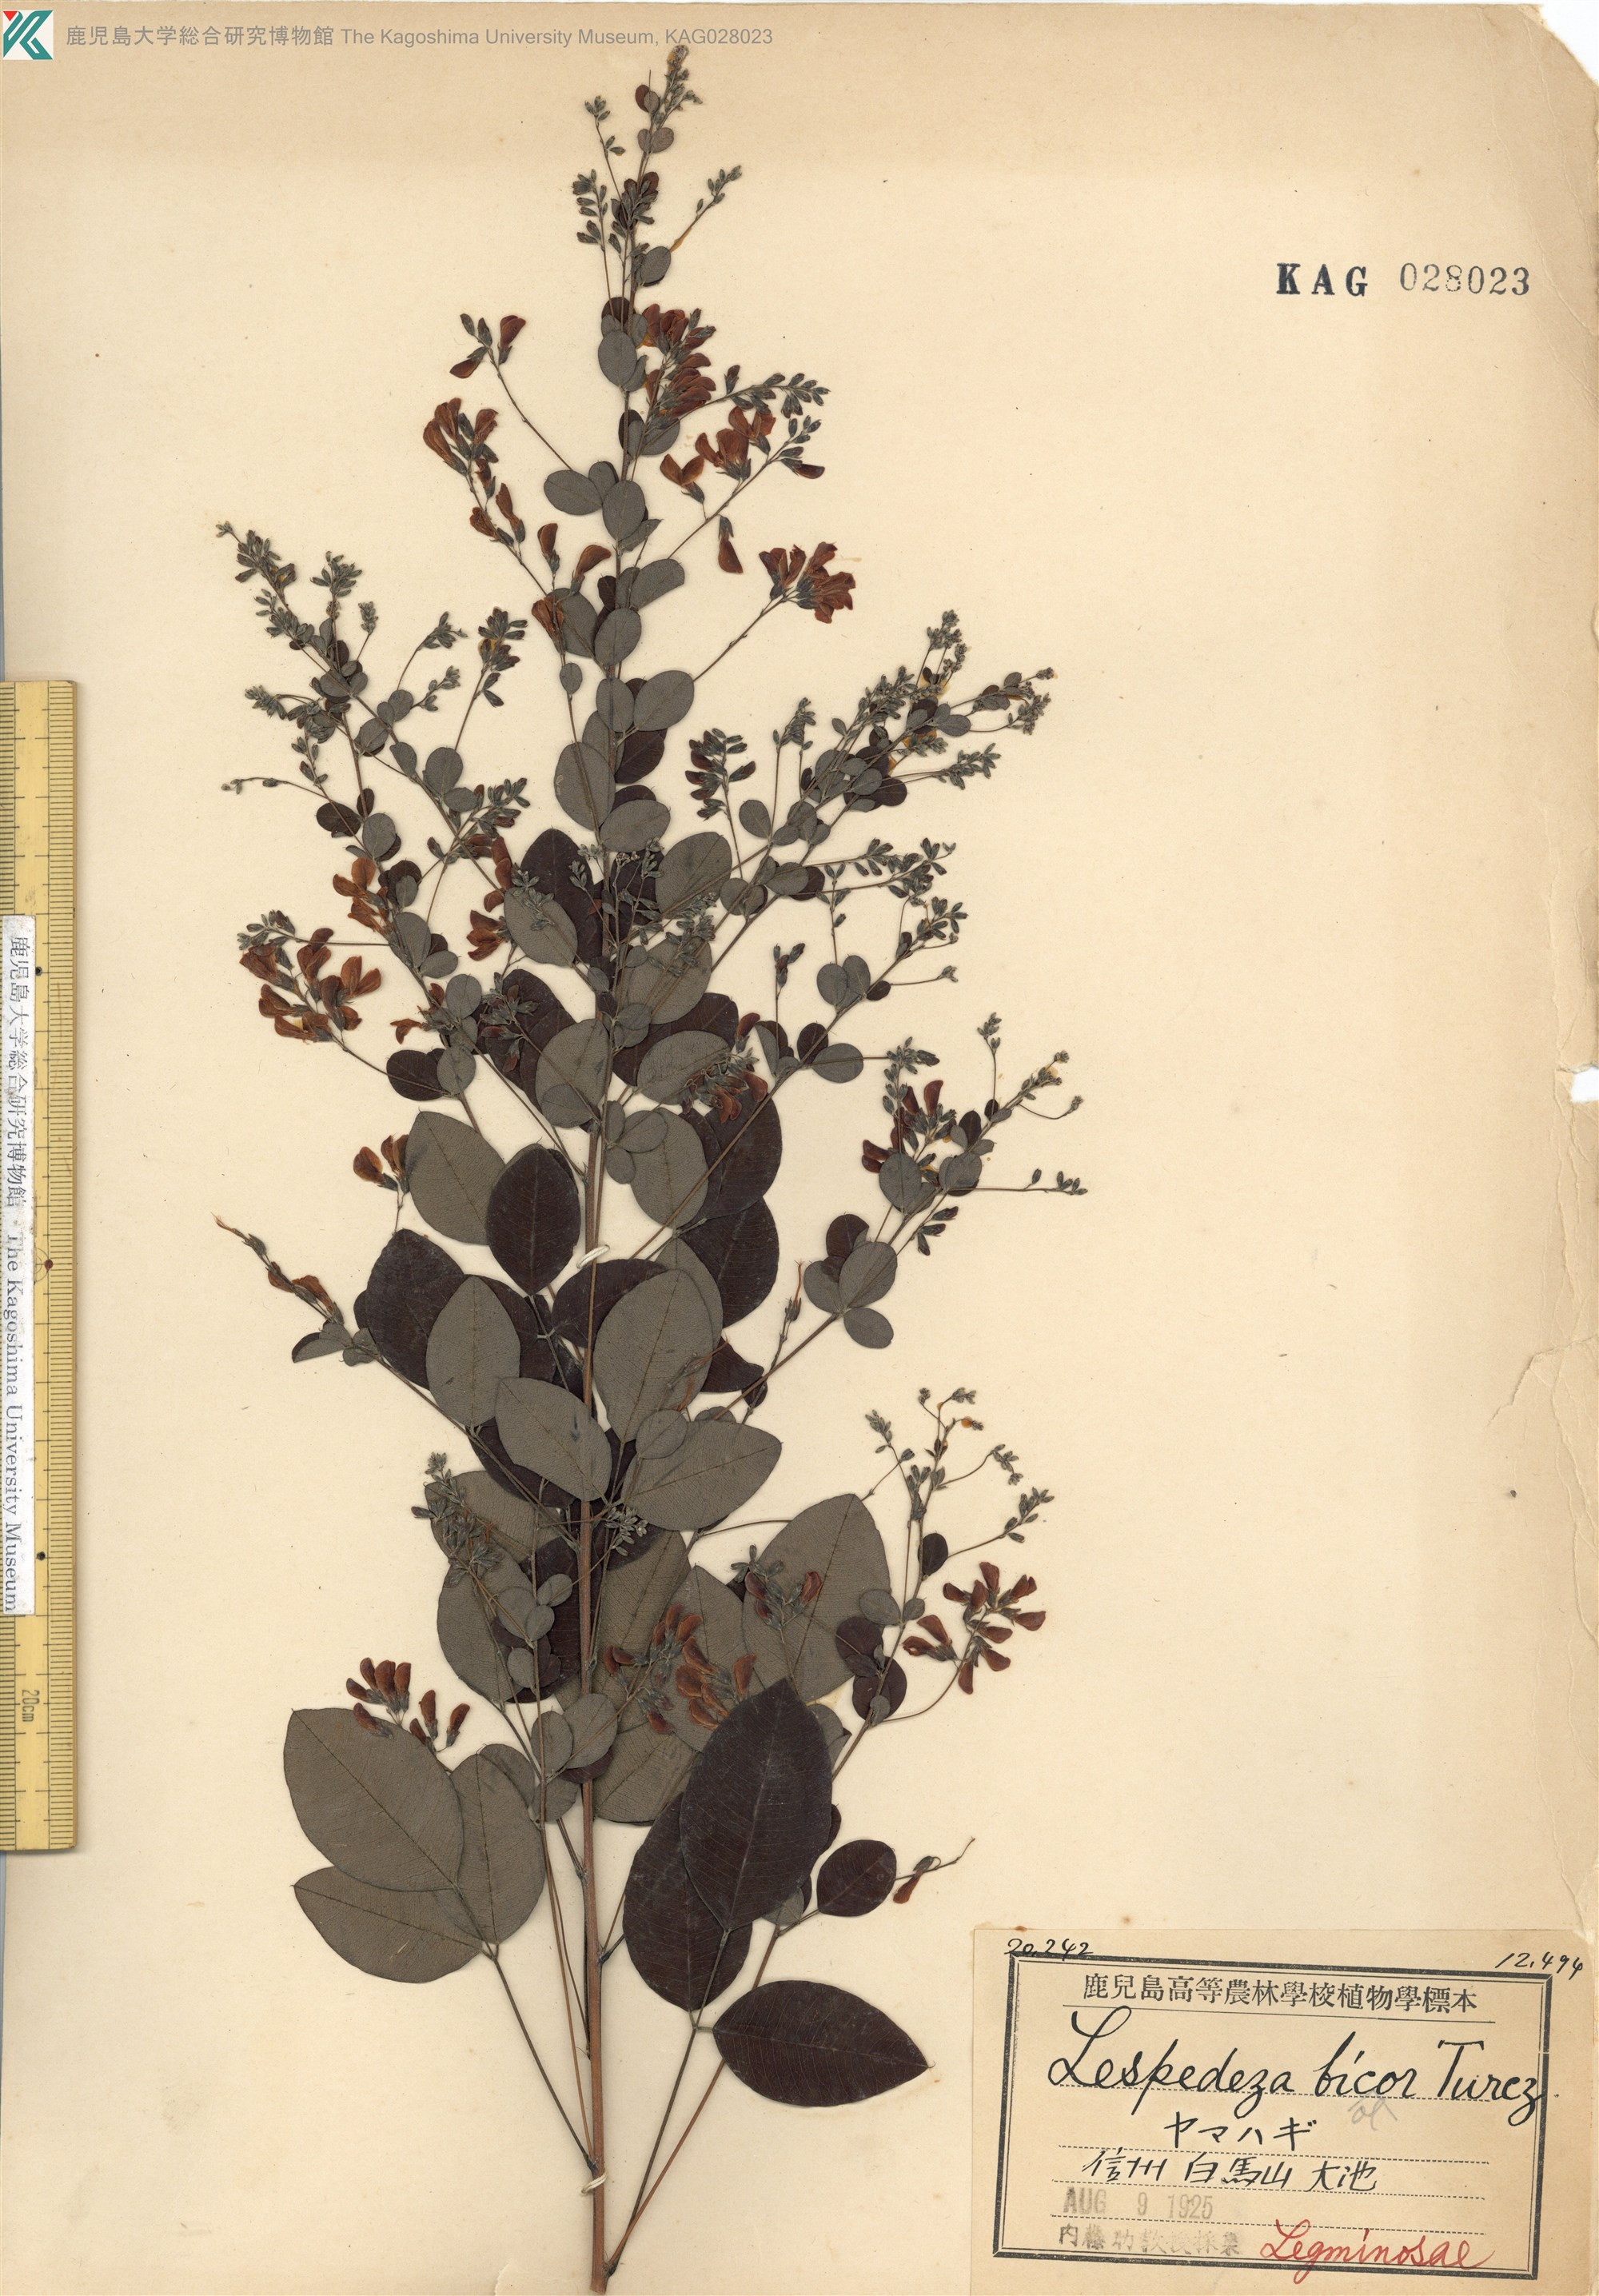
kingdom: Plantae
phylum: Tracheophyta
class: Magnoliopsida
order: Fabales
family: Fabaceae
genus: Lespedeza
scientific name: Lespedeza bicolor
